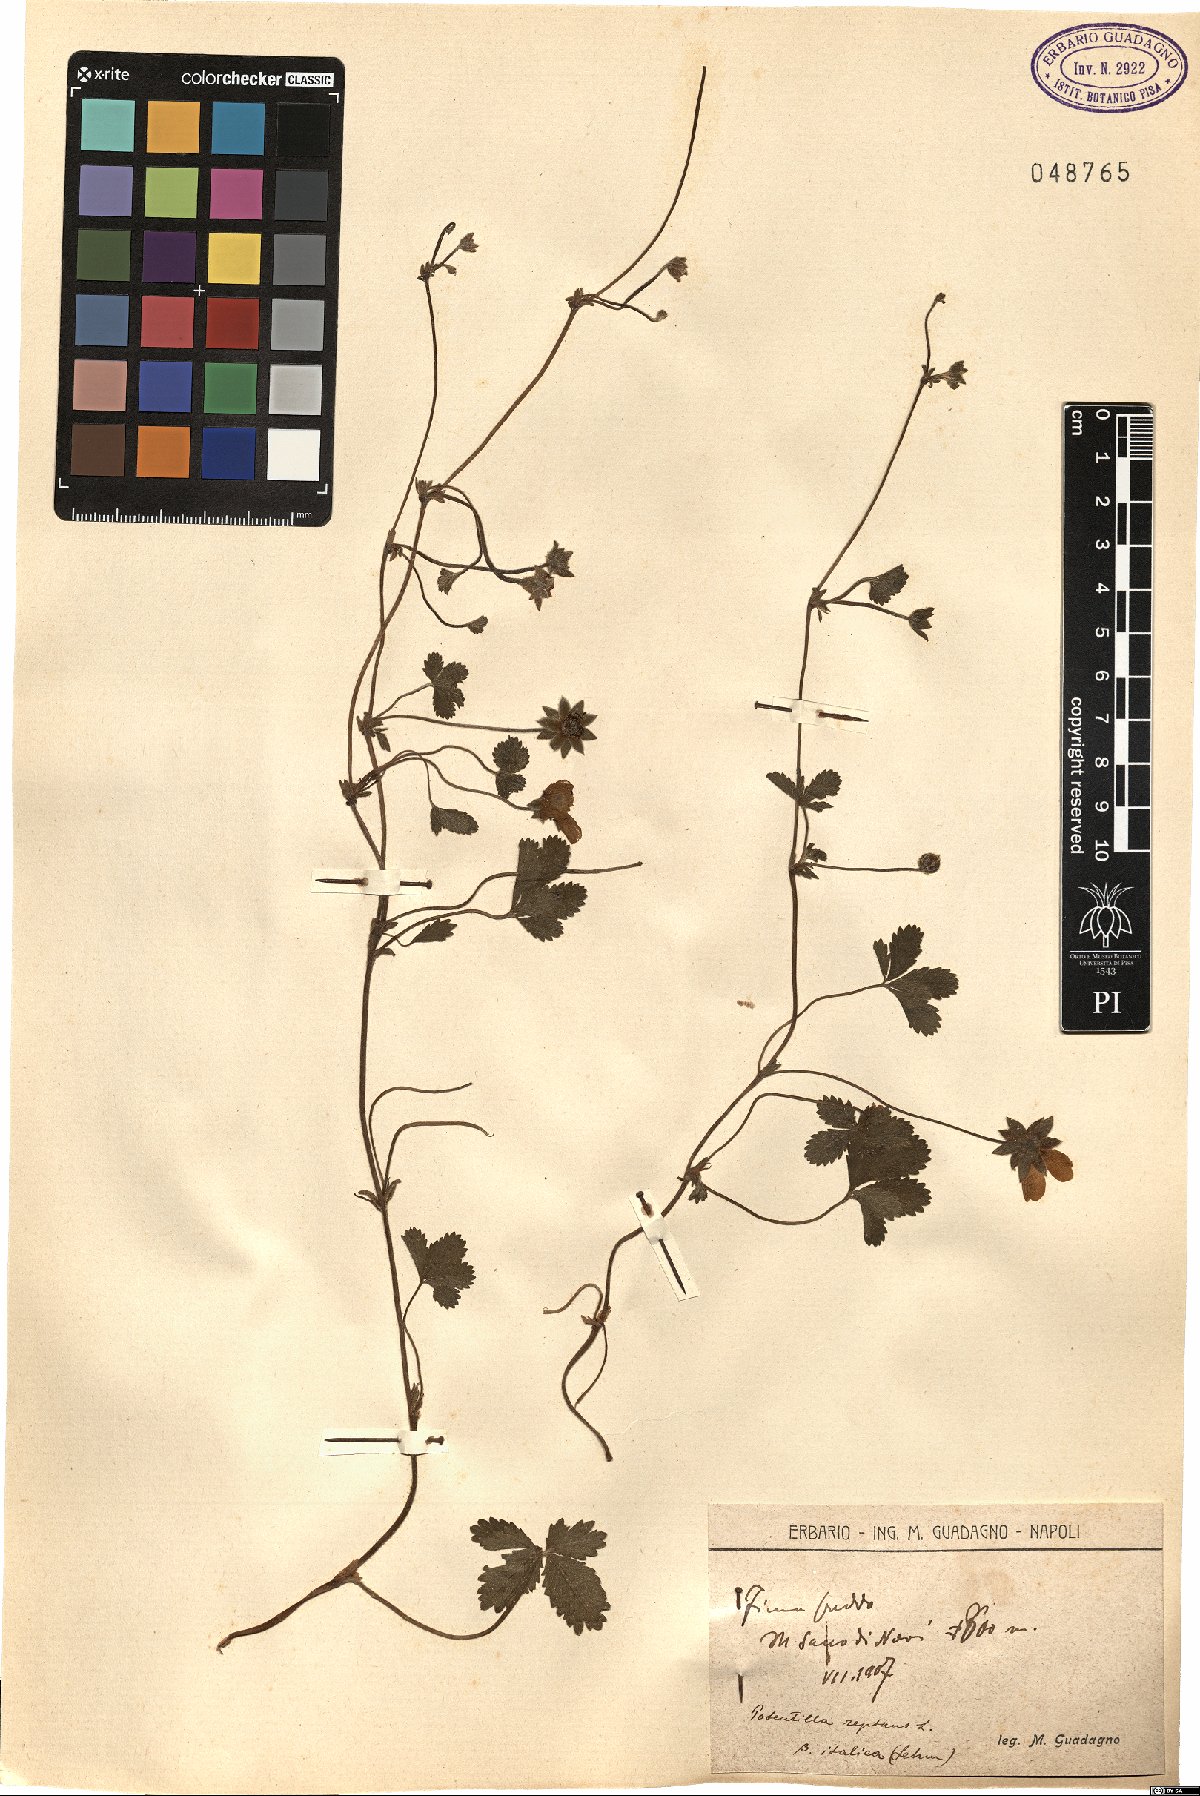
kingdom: Plantae
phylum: Tracheophyta
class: Magnoliopsida
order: Rosales
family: Rosaceae
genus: Potentilla
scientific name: Potentilla reptans
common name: Creeping cinquefoil
